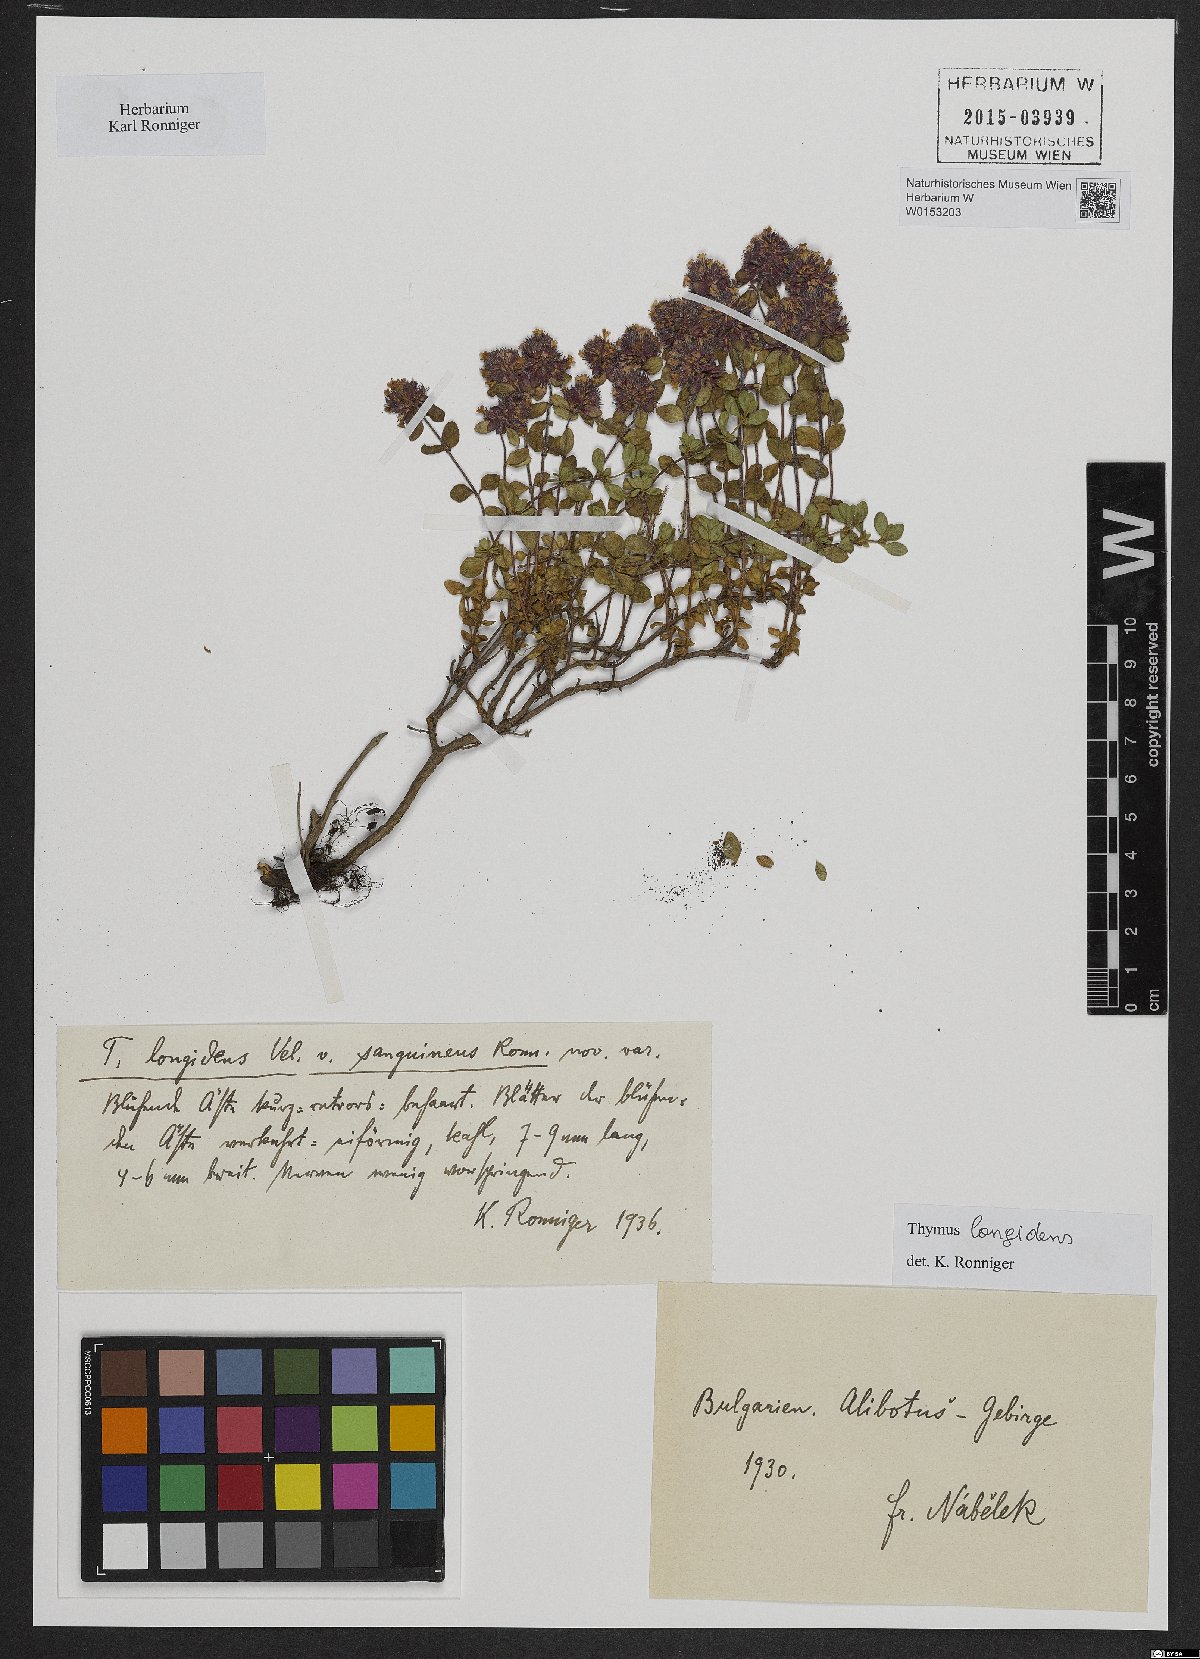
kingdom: Plantae
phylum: Tracheophyta
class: Magnoliopsida
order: Lamiales
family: Lamiaceae
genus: Thymus
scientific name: Thymus thracicus
